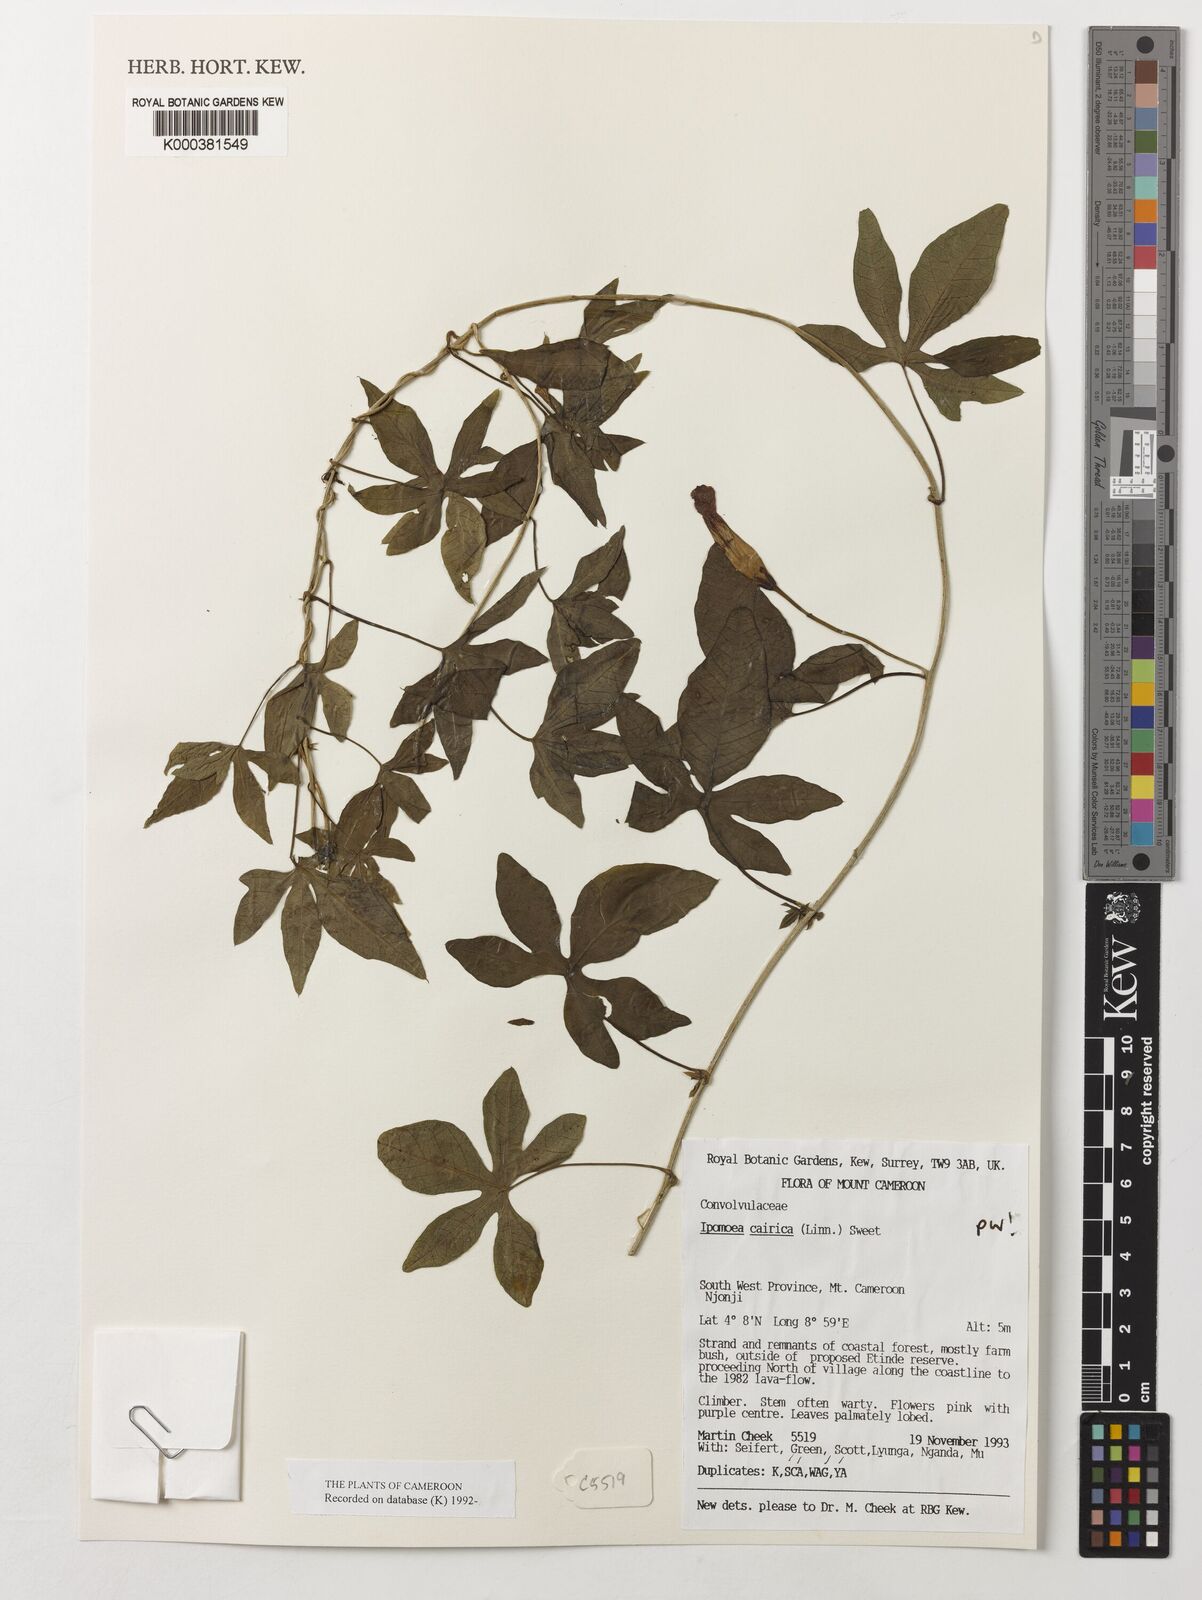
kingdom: Plantae
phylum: Tracheophyta
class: Magnoliopsida
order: Solanales
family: Convolvulaceae
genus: Ipomoea
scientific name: Ipomoea cairica
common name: Mile a minute vine
